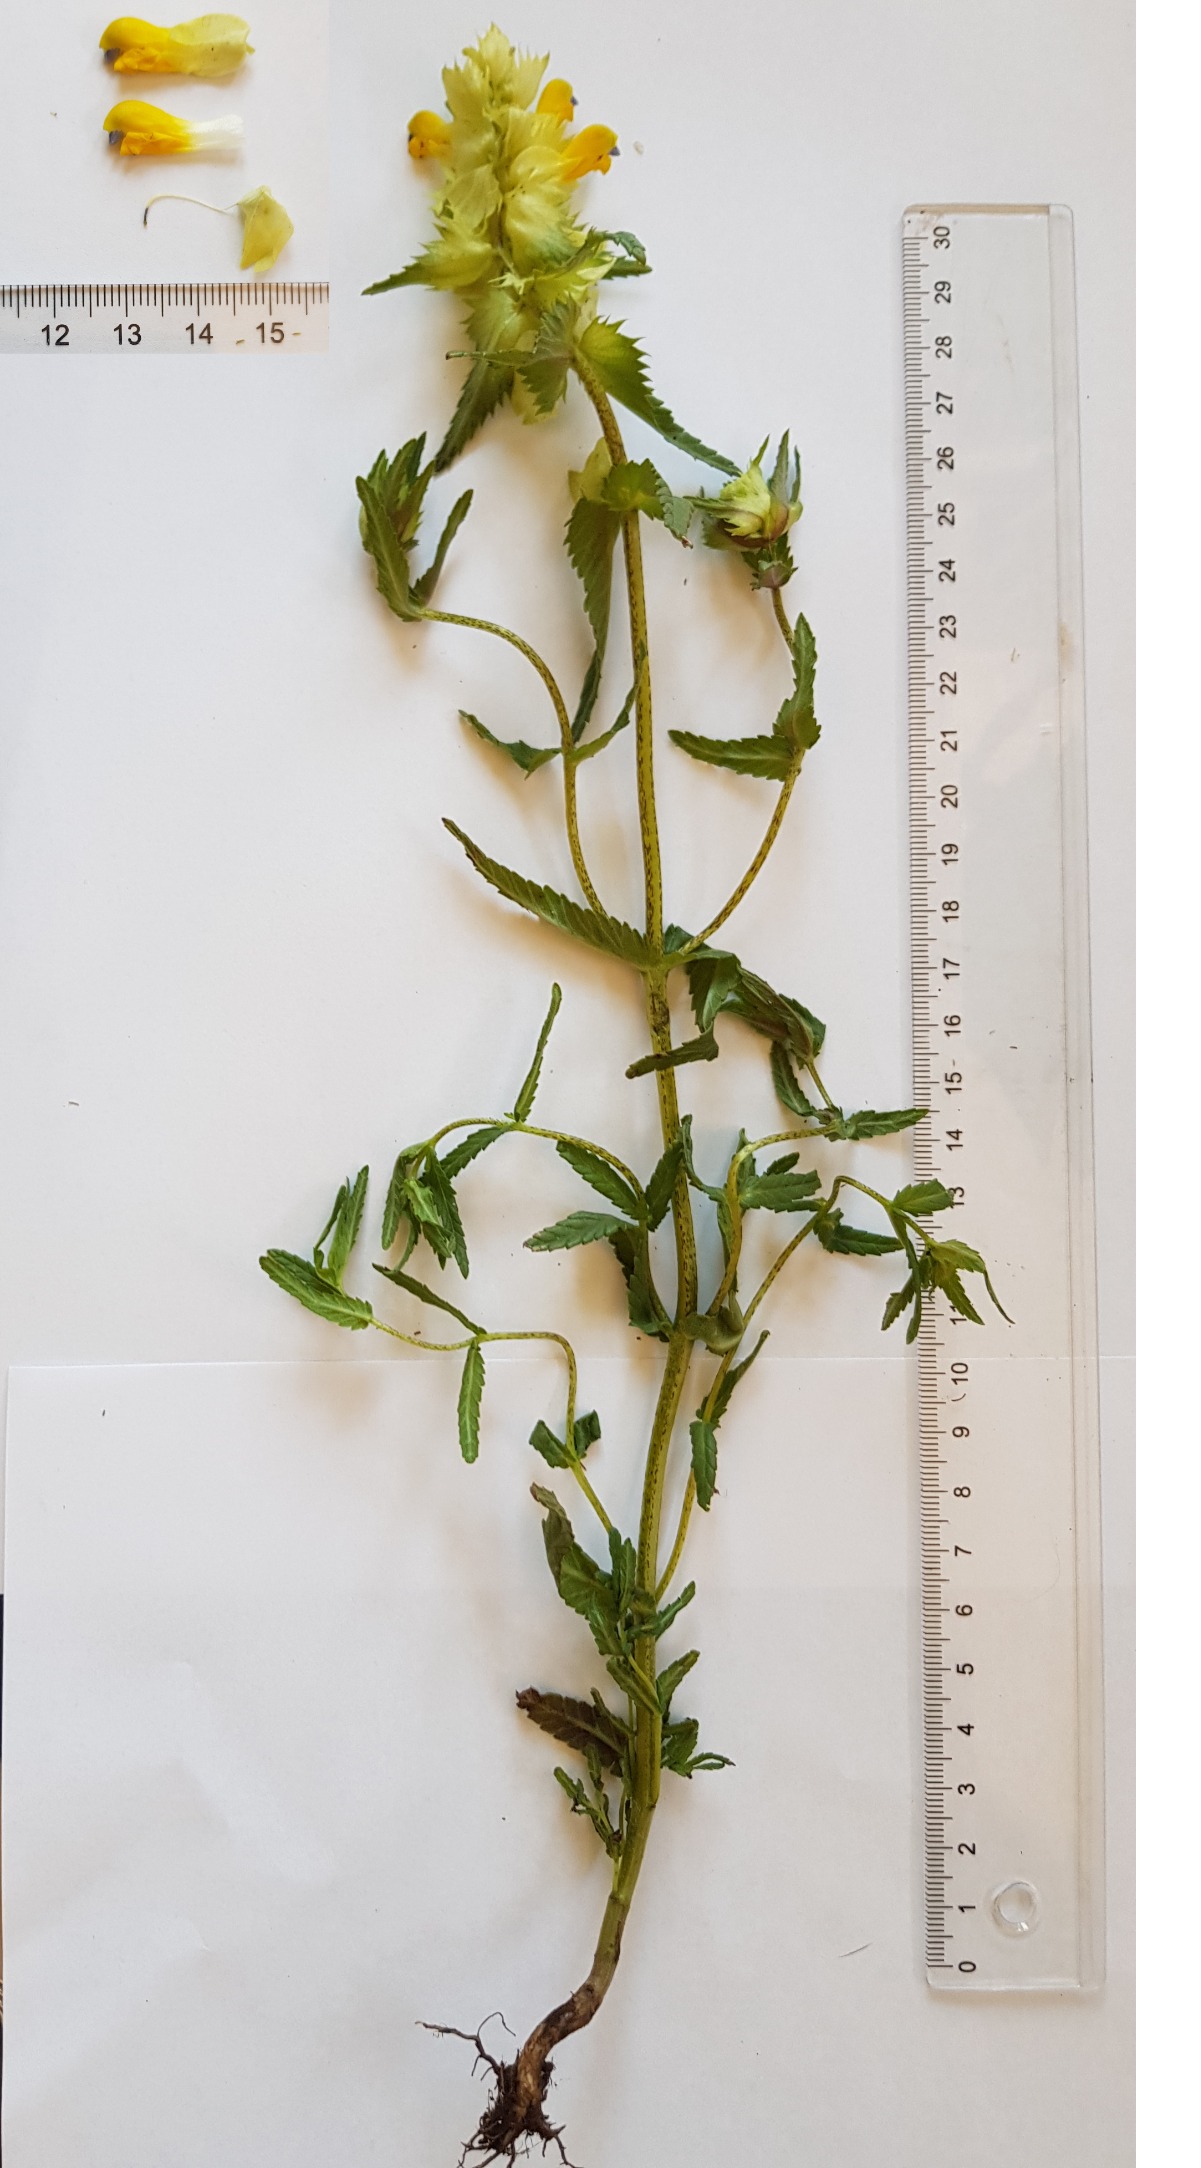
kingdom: Plantae
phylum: Tracheophyta
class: Magnoliopsida
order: Lamiales
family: Orobanchaceae
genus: Rhinanthus
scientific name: Rhinanthus
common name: Stor skjaller
